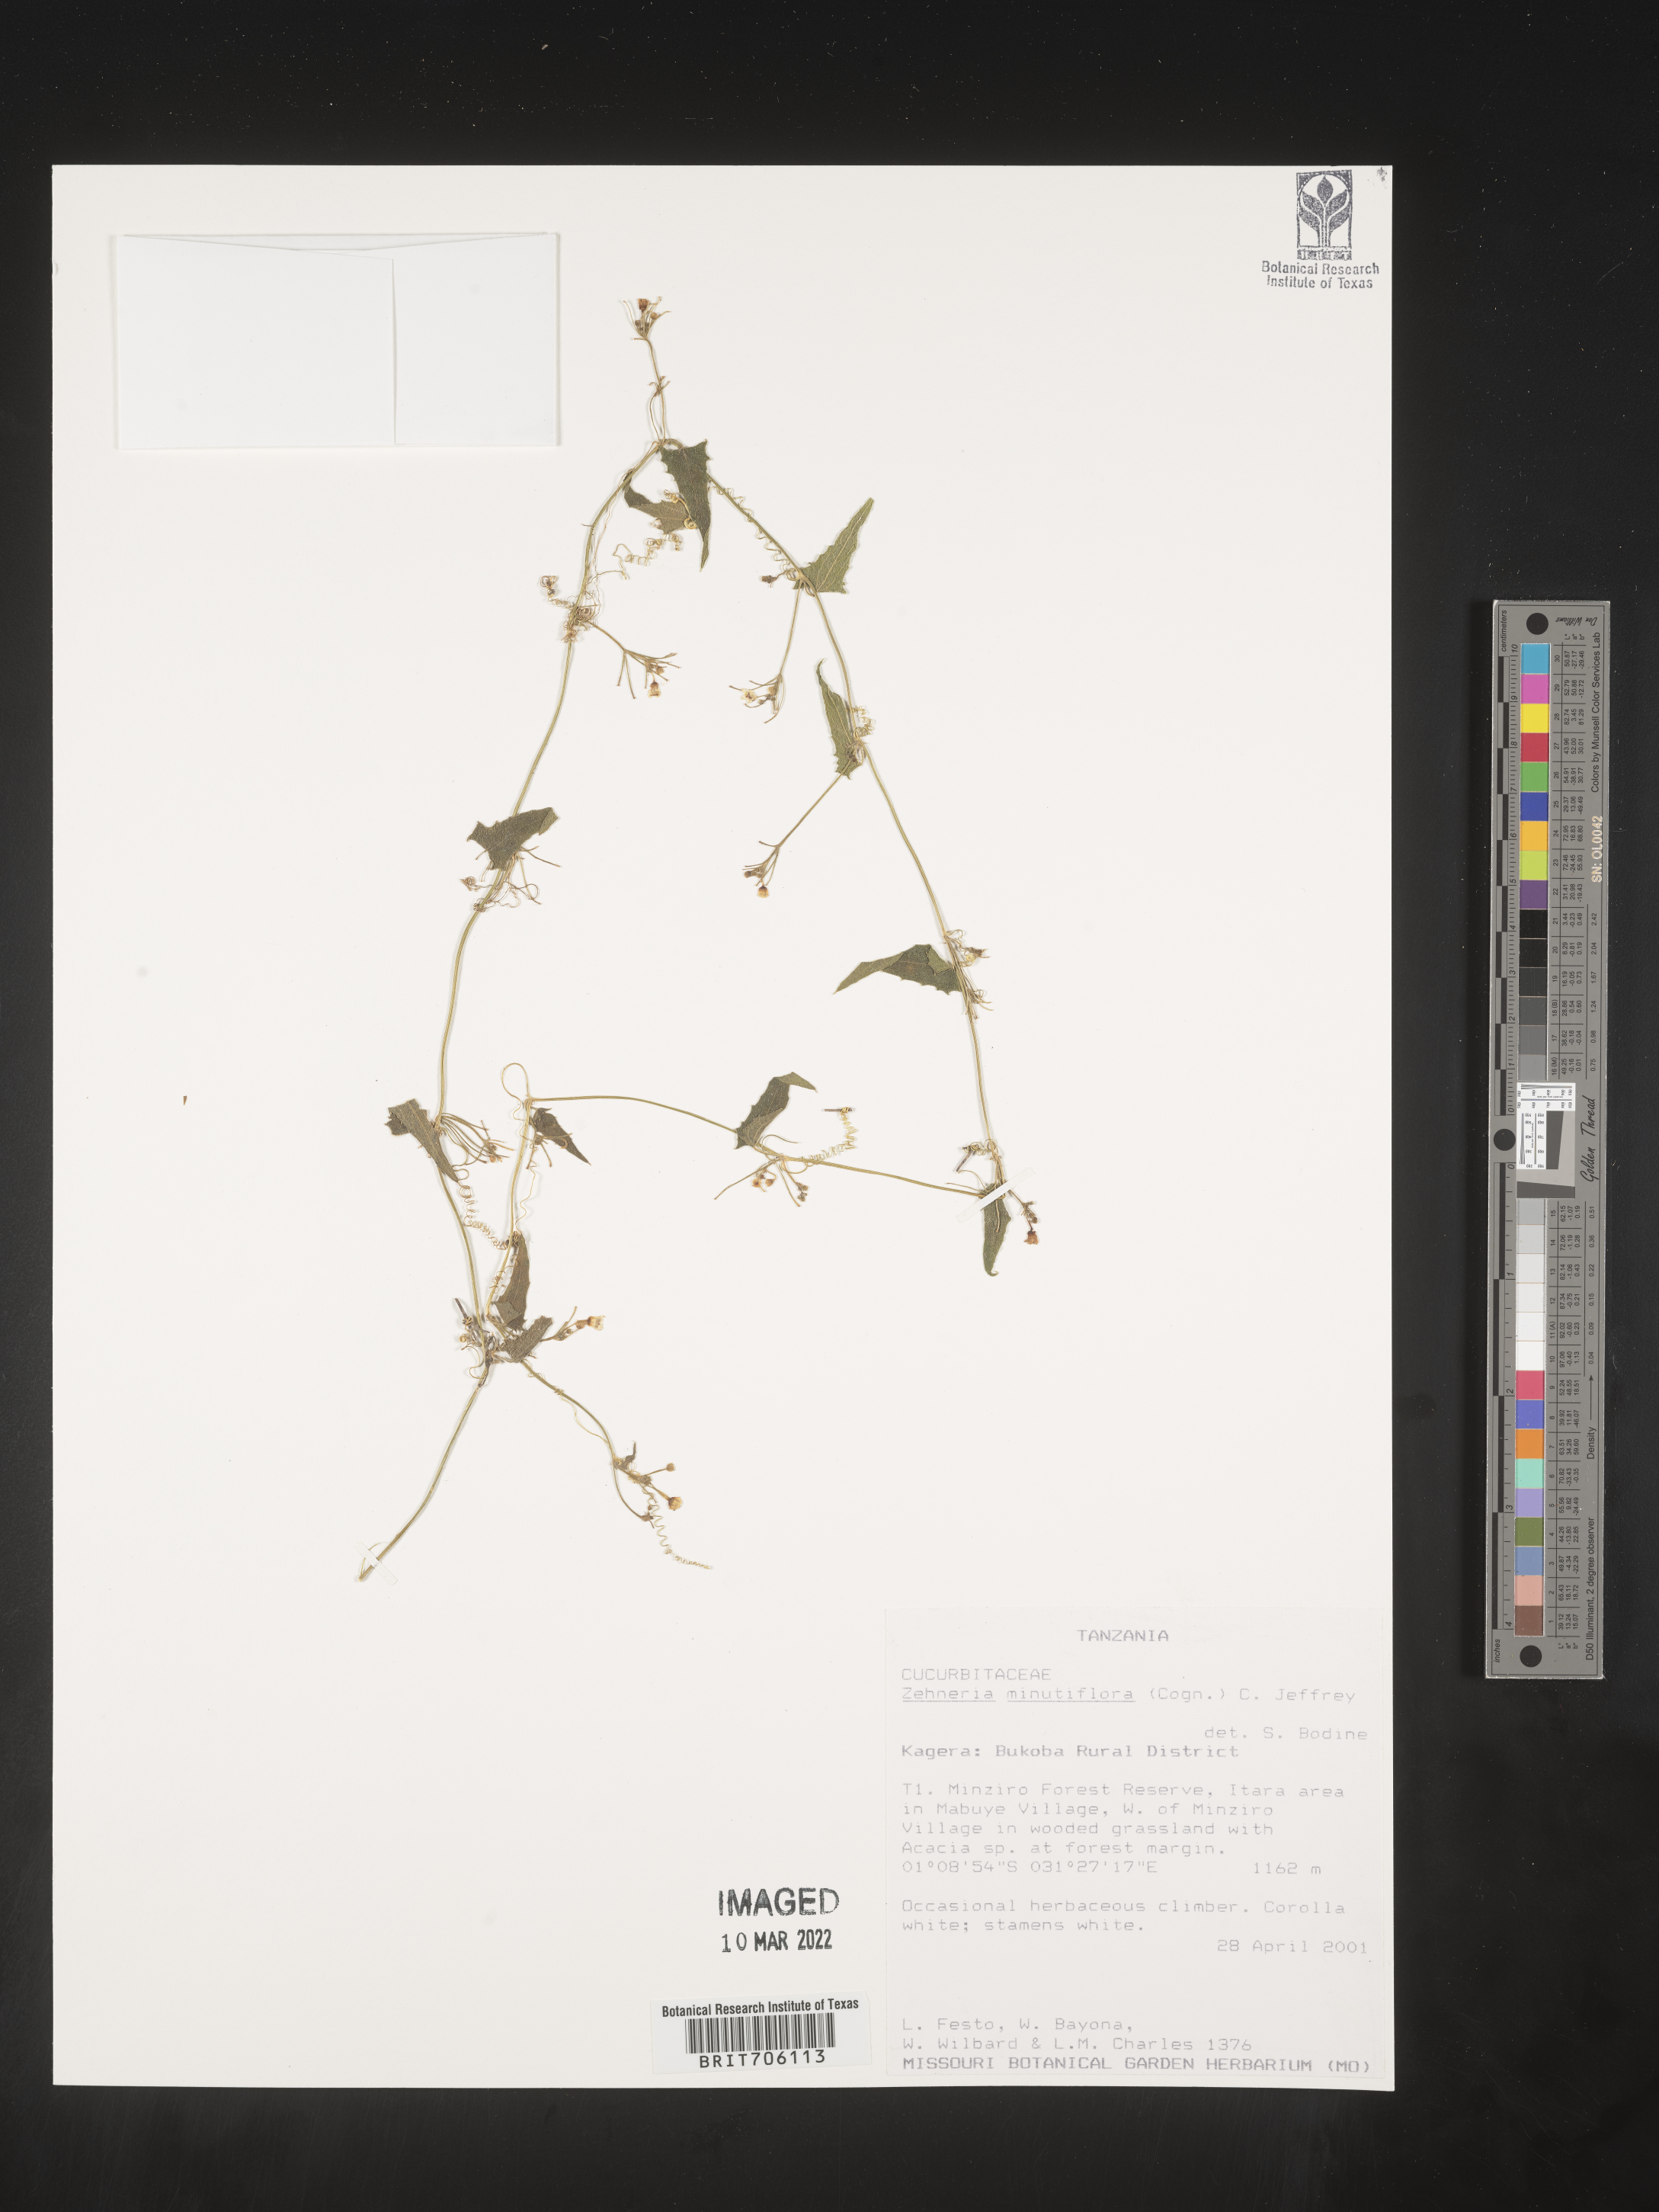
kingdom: Plantae
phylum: Tracheophyta
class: Magnoliopsida
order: Cucurbitales
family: Cucurbitaceae
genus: Zehneria
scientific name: Zehneria
